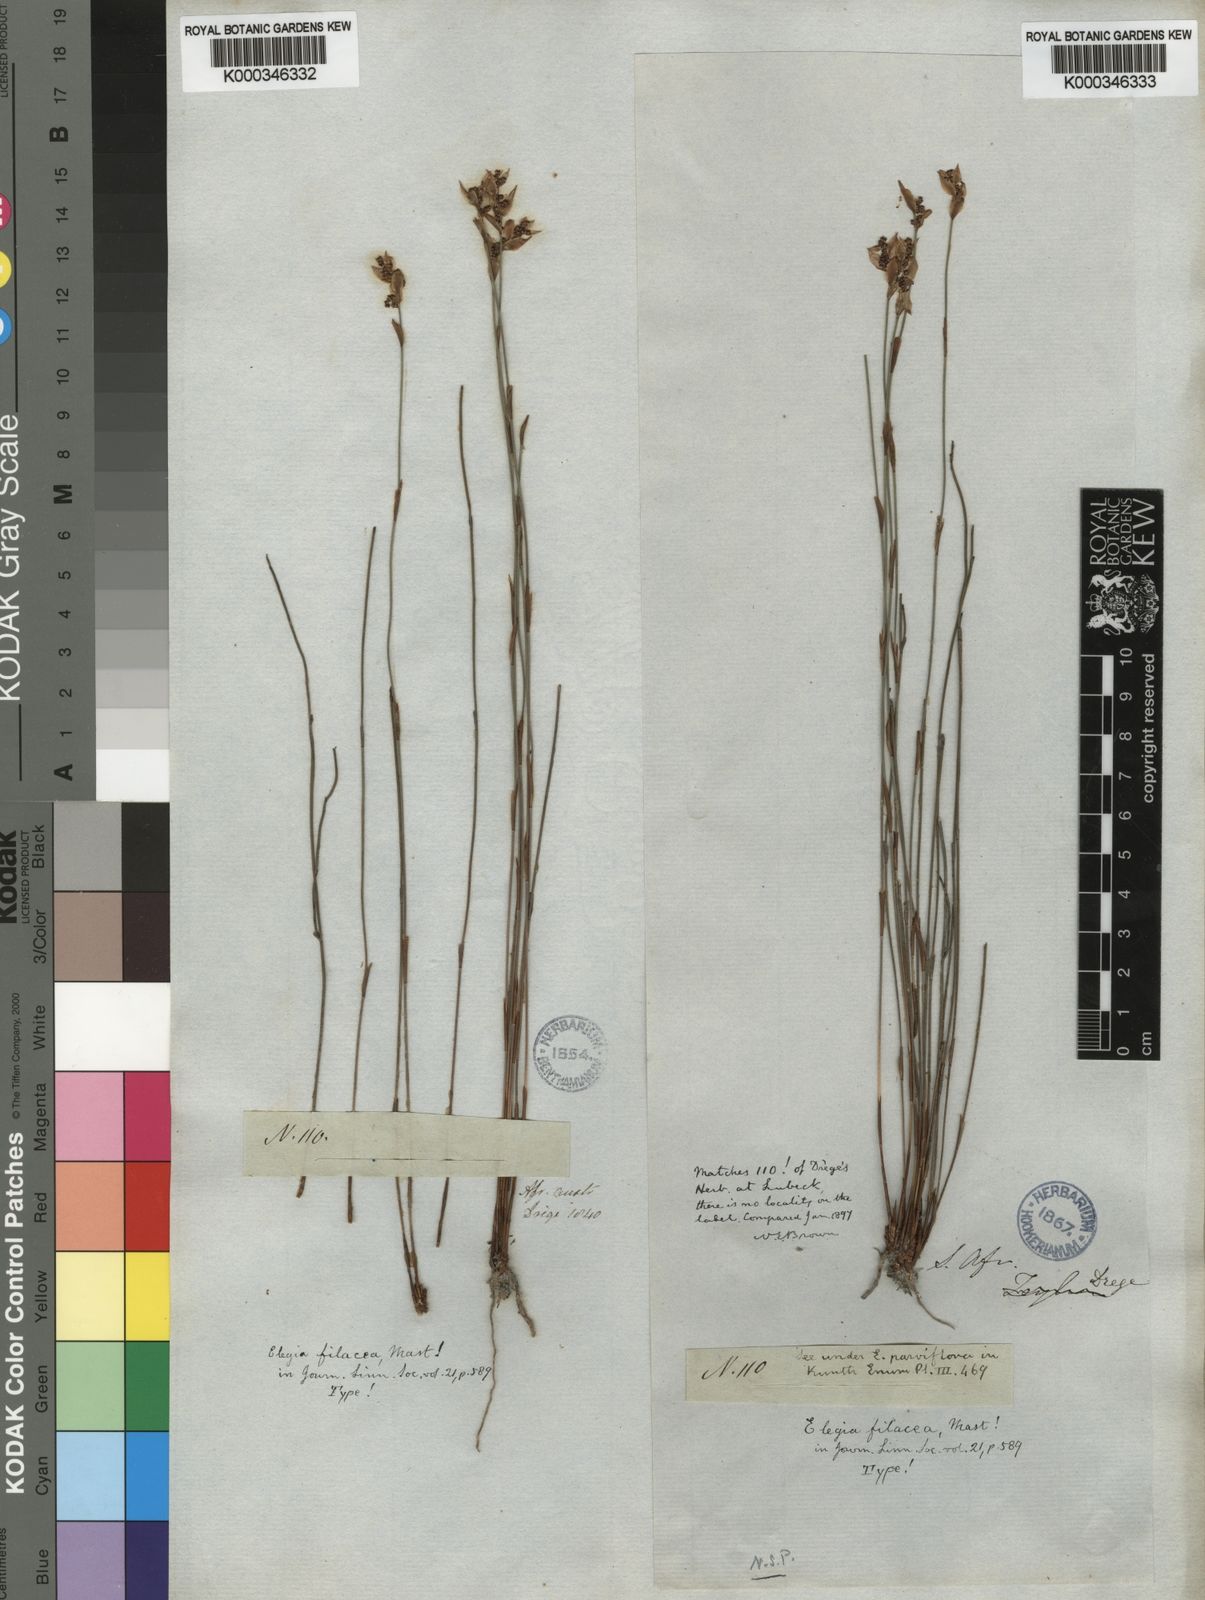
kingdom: Plantae
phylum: Tracheophyta
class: Liliopsida
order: Poales
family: Restionaceae
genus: Elegia
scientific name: Elegia filacea
